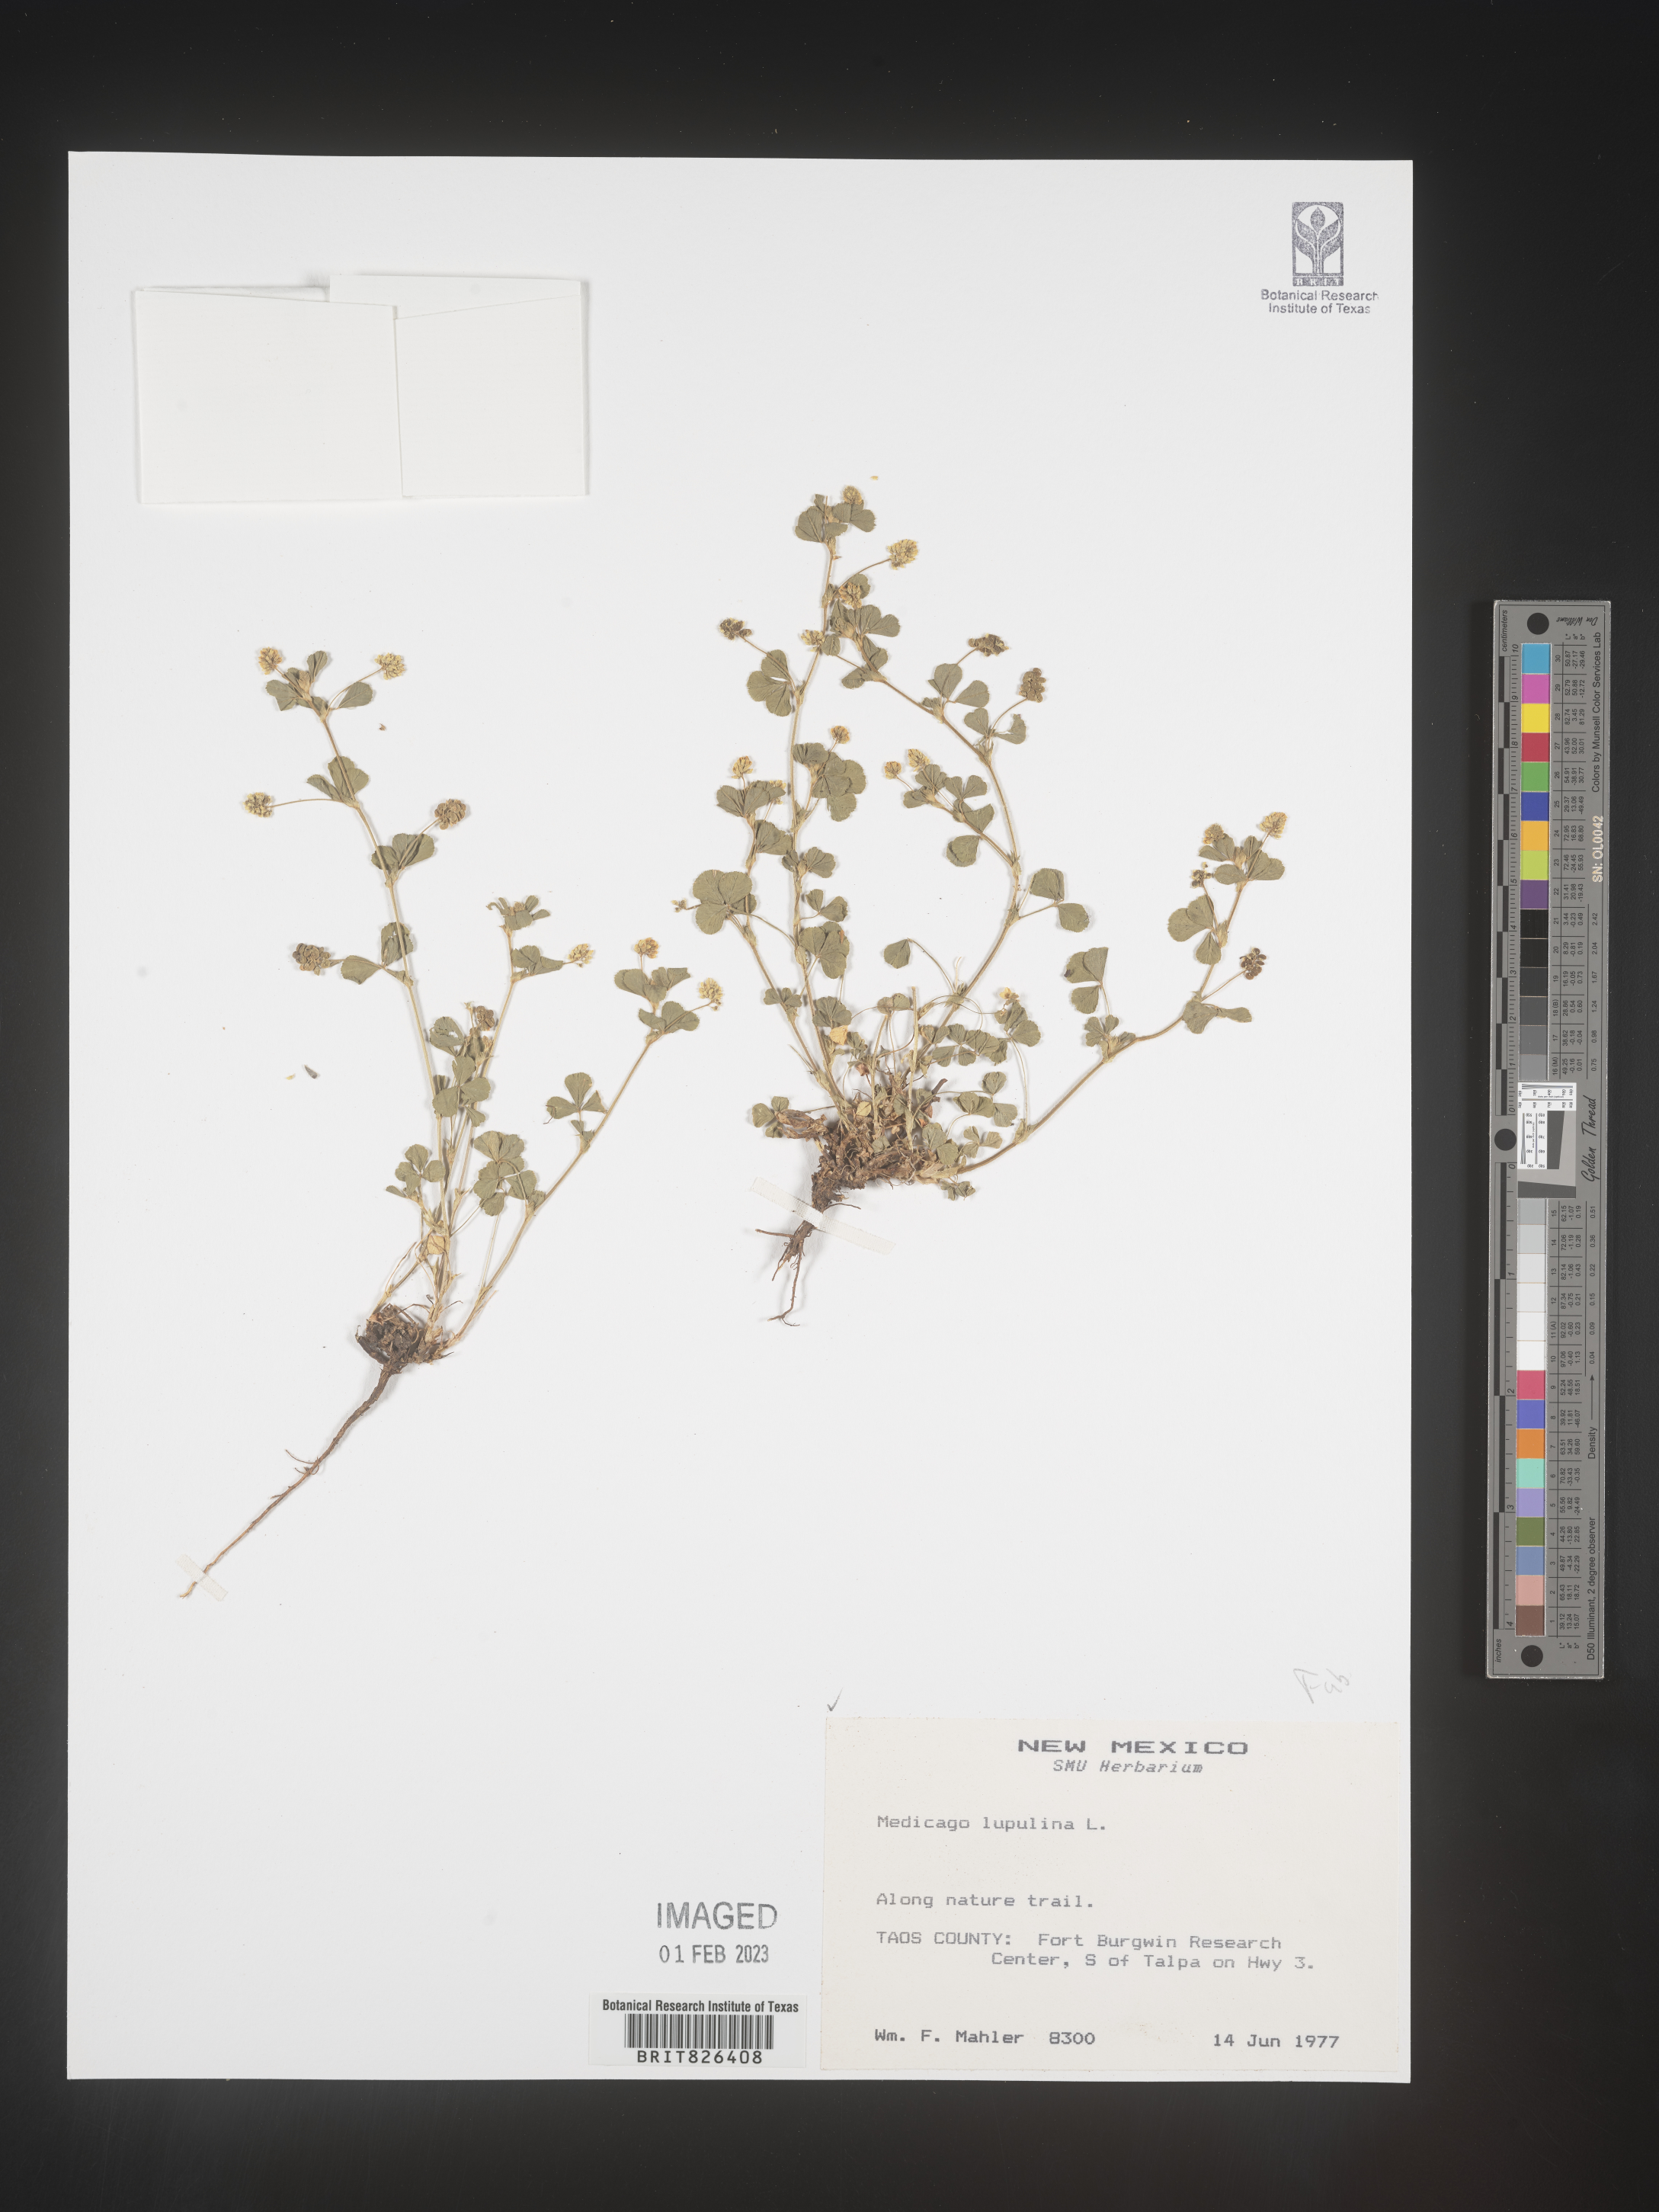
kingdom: Plantae
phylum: Tracheophyta
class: Magnoliopsida
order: Fabales
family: Fabaceae
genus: Medicago
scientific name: Medicago lupulina
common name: Black medick
